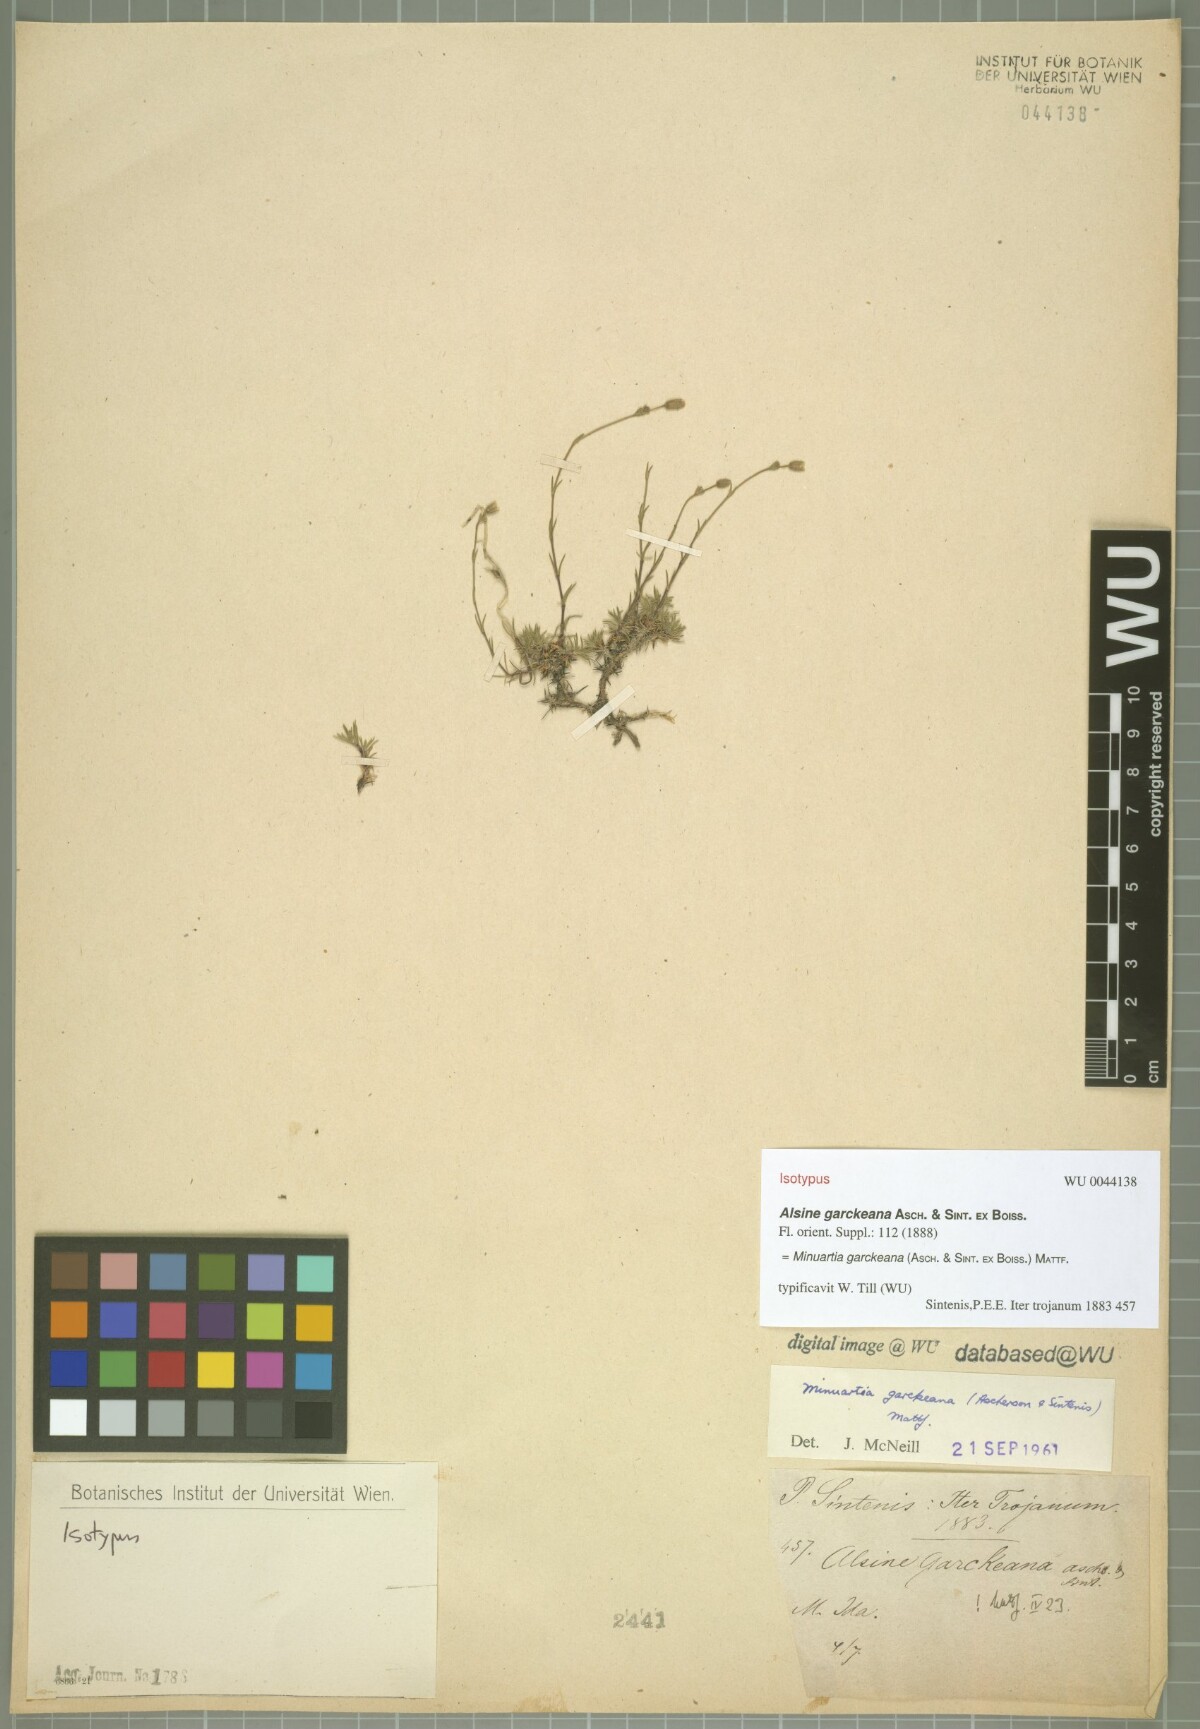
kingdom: Plantae
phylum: Tracheophyta
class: Magnoliopsida
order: Caryophyllales
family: Caryophyllaceae
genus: Cherleria
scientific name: Cherleria garckeana
